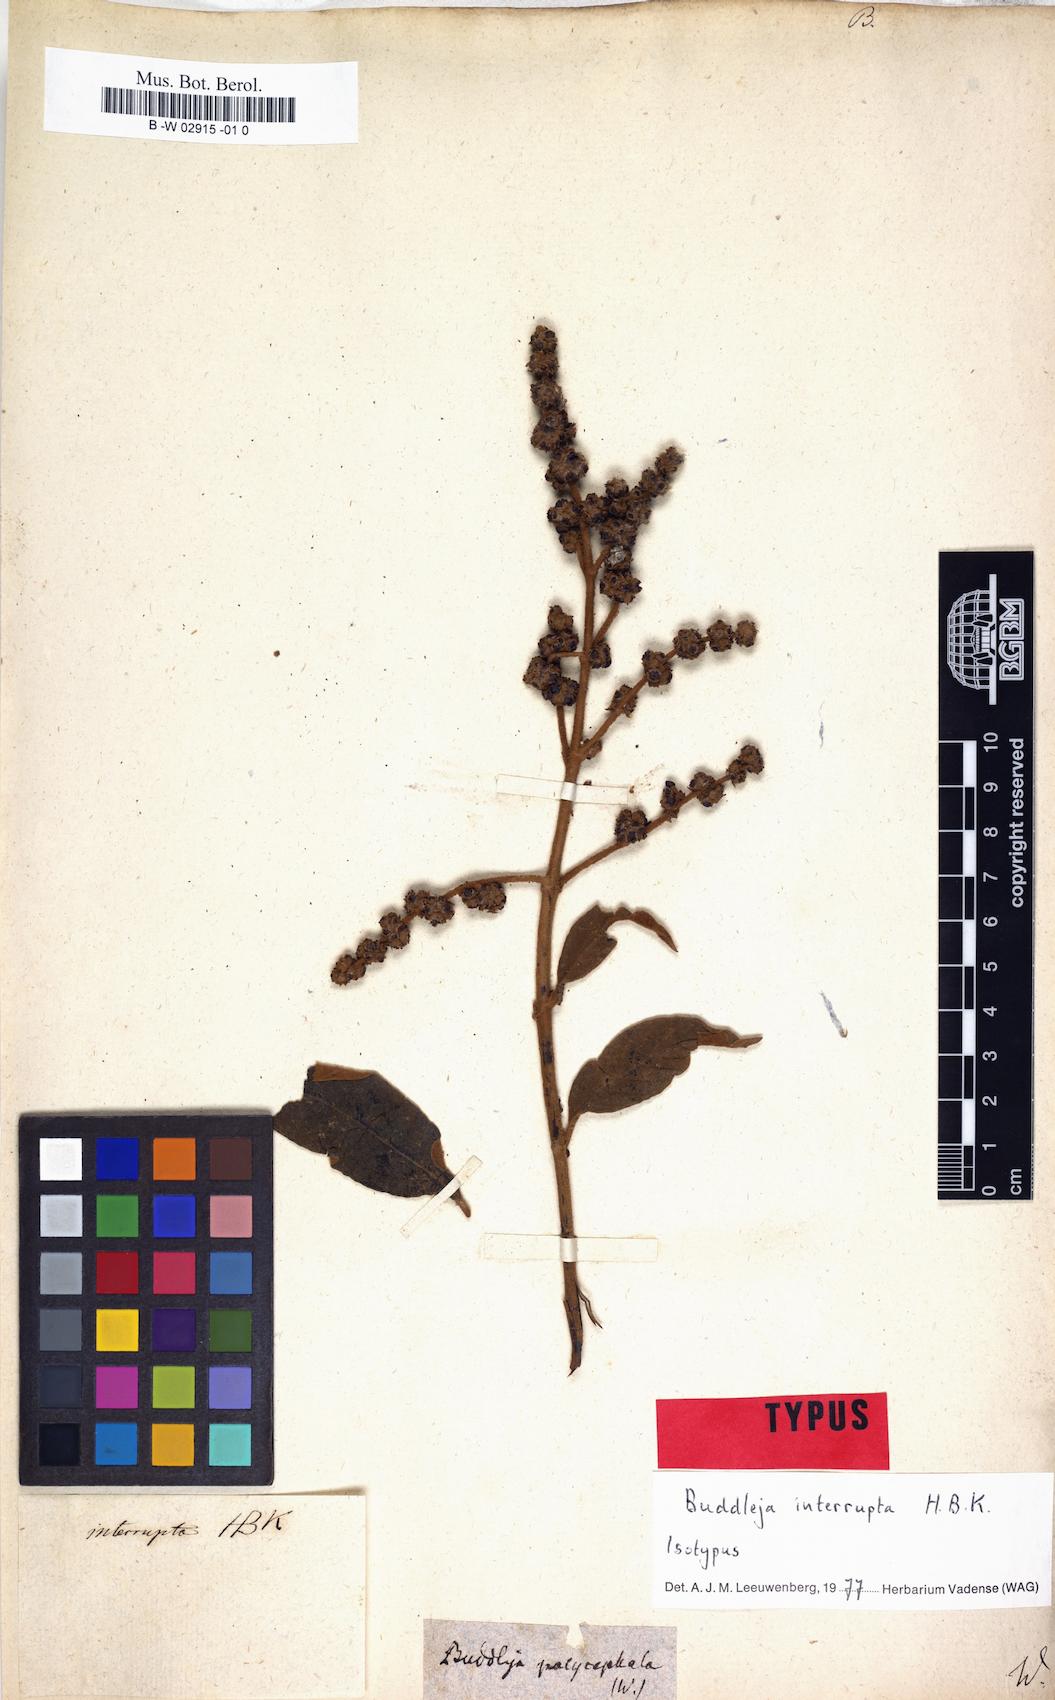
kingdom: Plantae
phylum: Tracheophyta
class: Magnoliopsida
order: Lamiales
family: Scrophulariaceae
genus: Buddleja
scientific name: Buddleja polycephala
